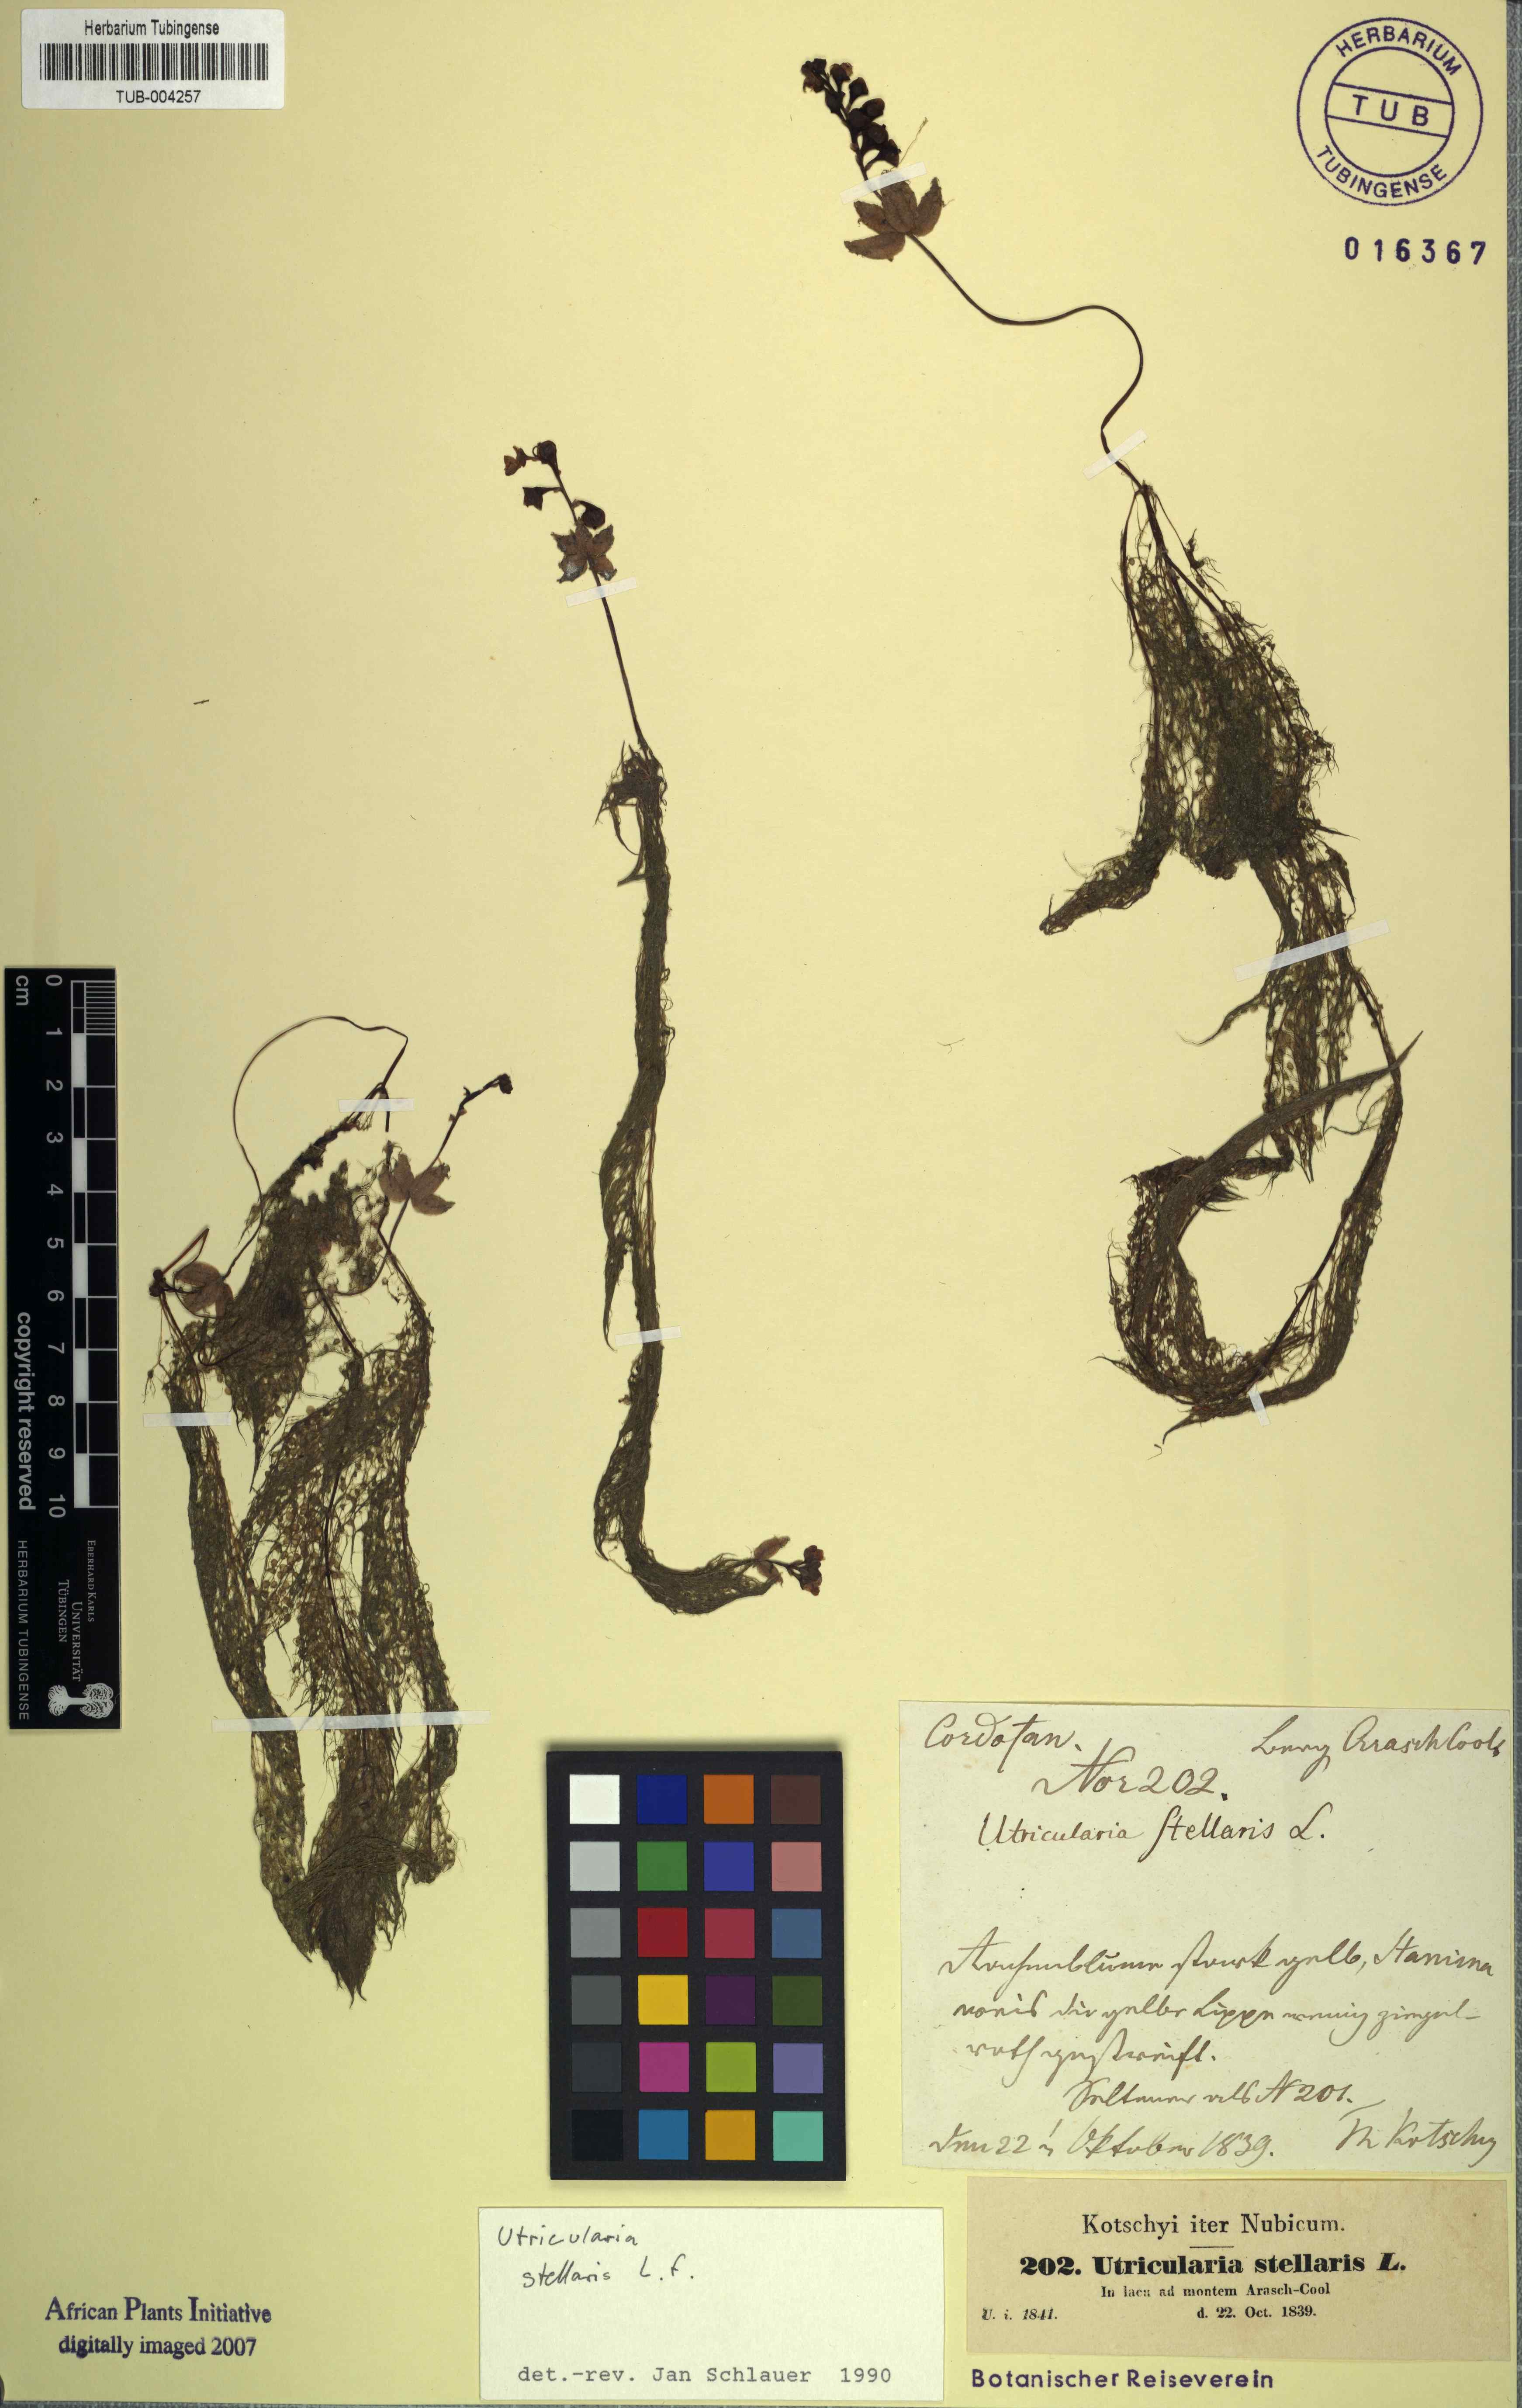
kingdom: Plantae
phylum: Tracheophyta
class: Magnoliopsida
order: Lamiales
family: Lentibulariaceae
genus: Utricularia
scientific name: Utricularia stellaris
